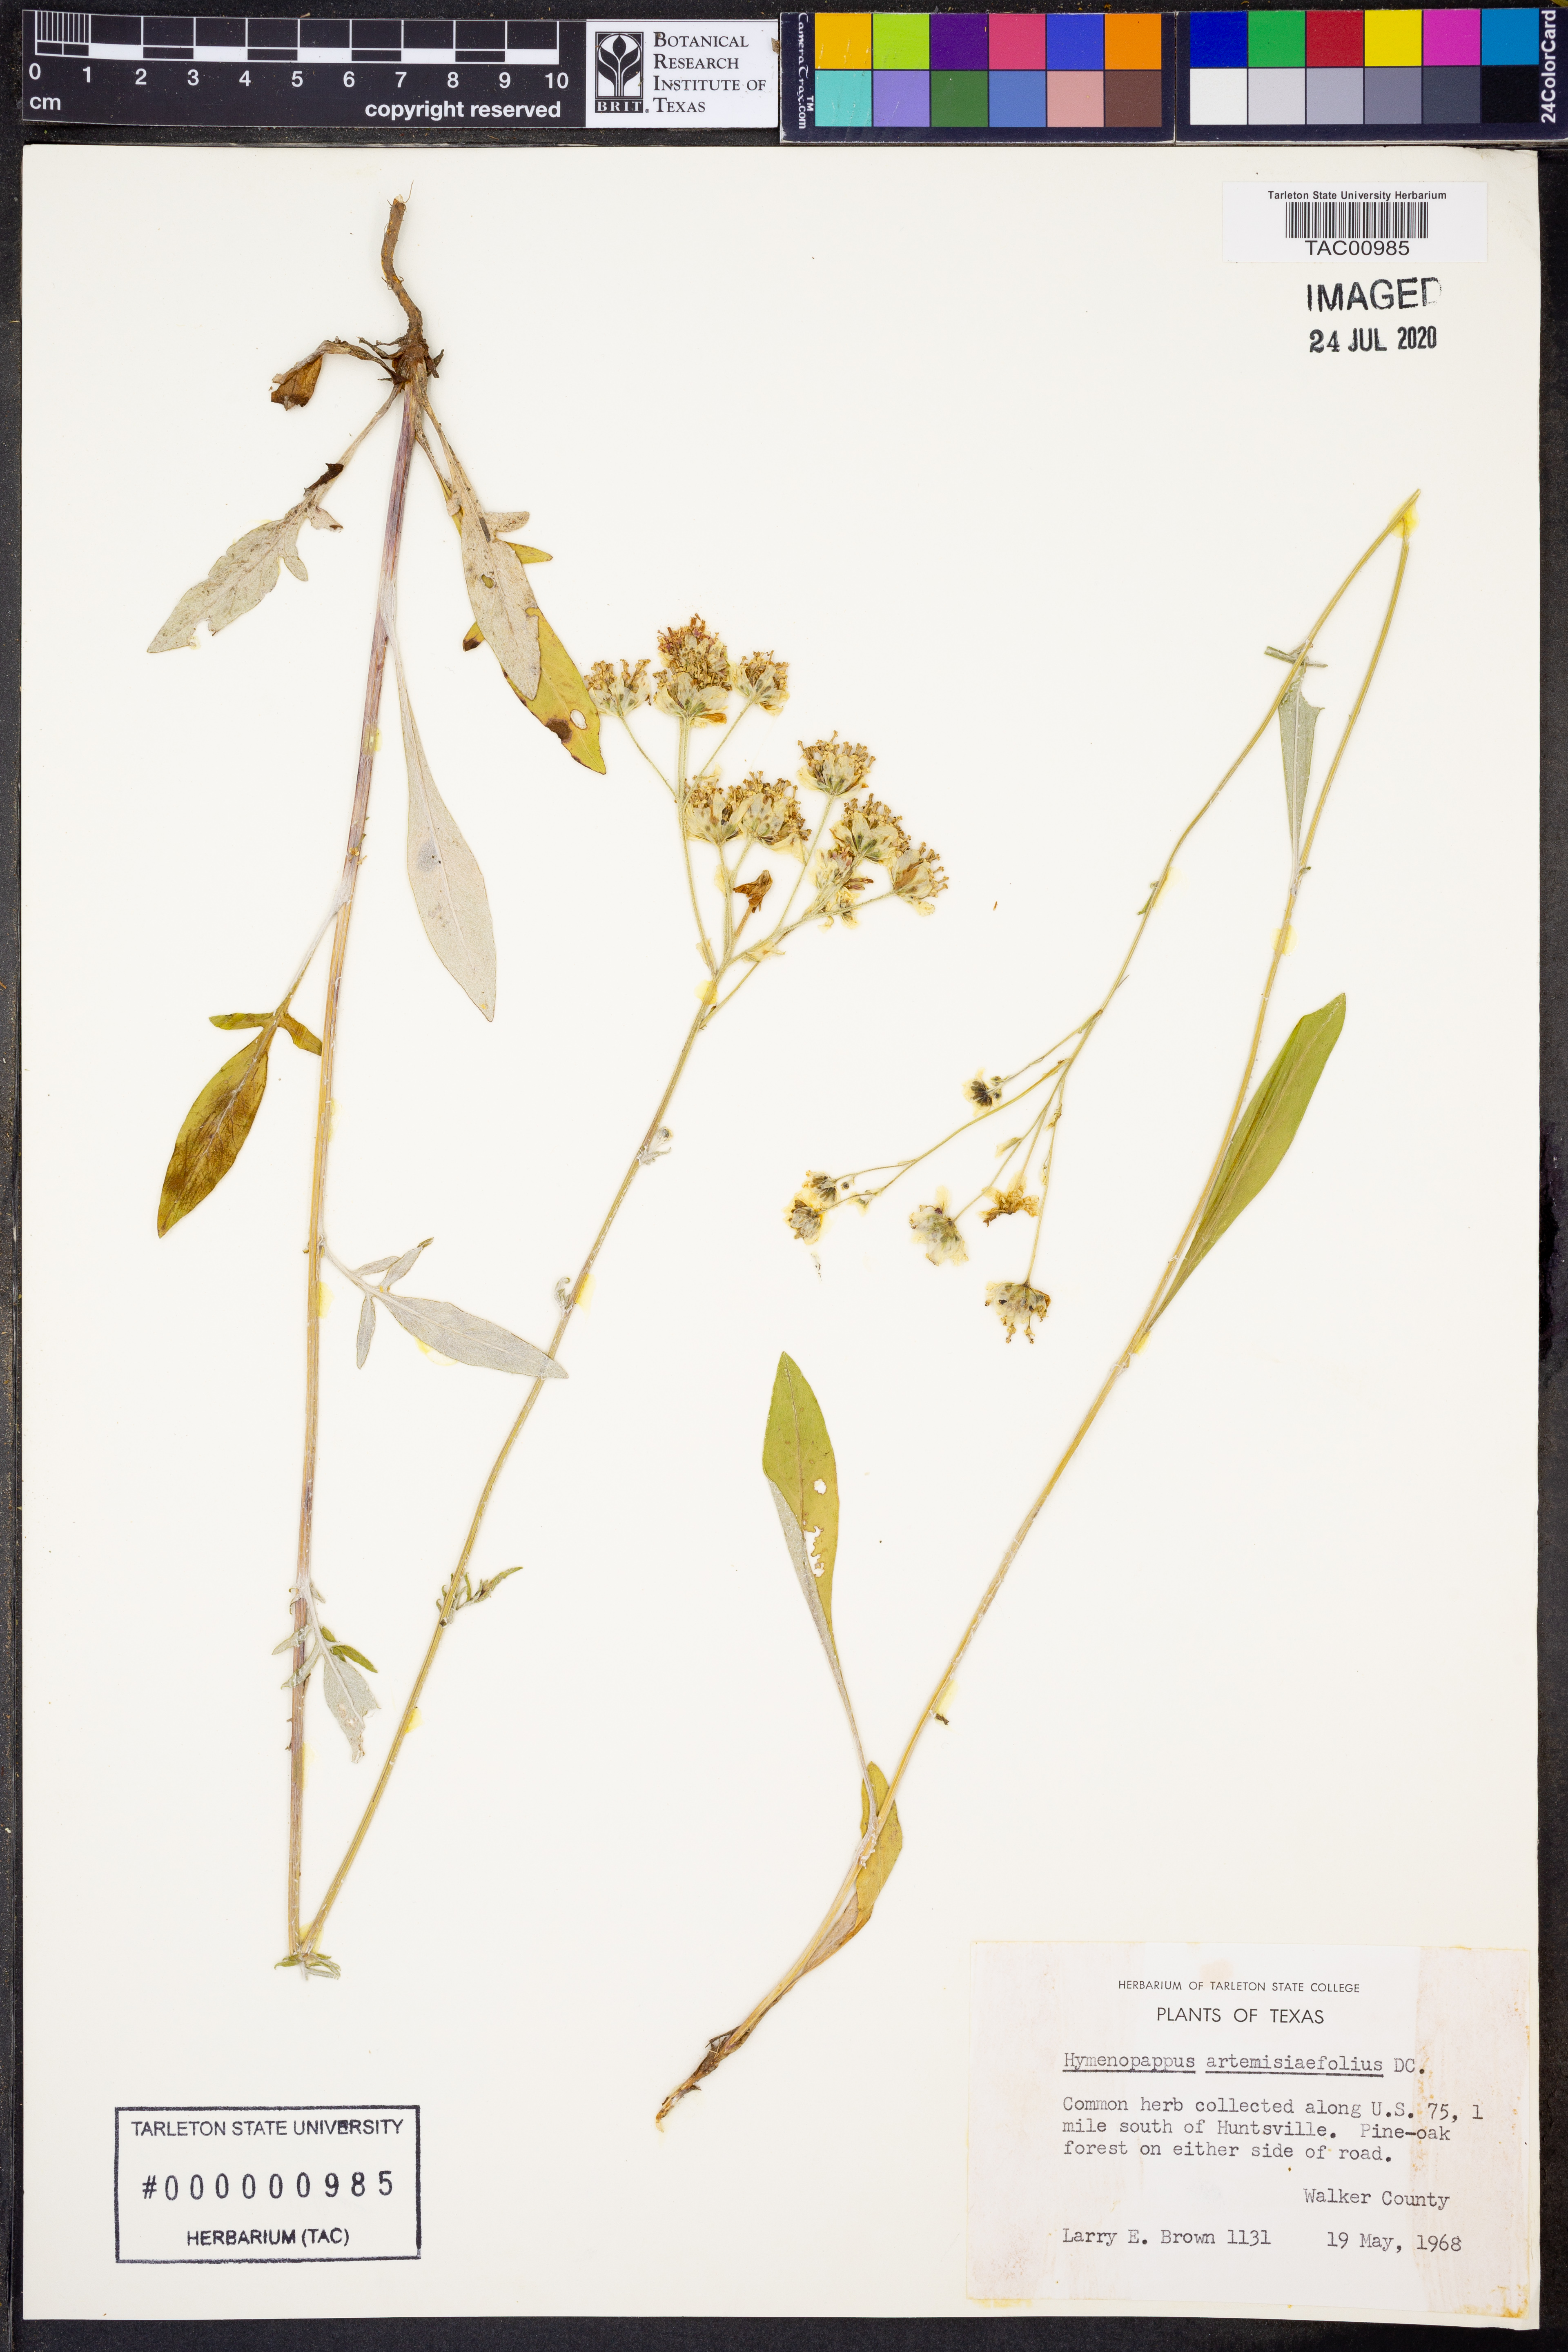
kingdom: Plantae
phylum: Tracheophyta
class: Magnoliopsida
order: Asterales
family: Asteraceae
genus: Hymenopappus
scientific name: Hymenopappus artemisiifolius
